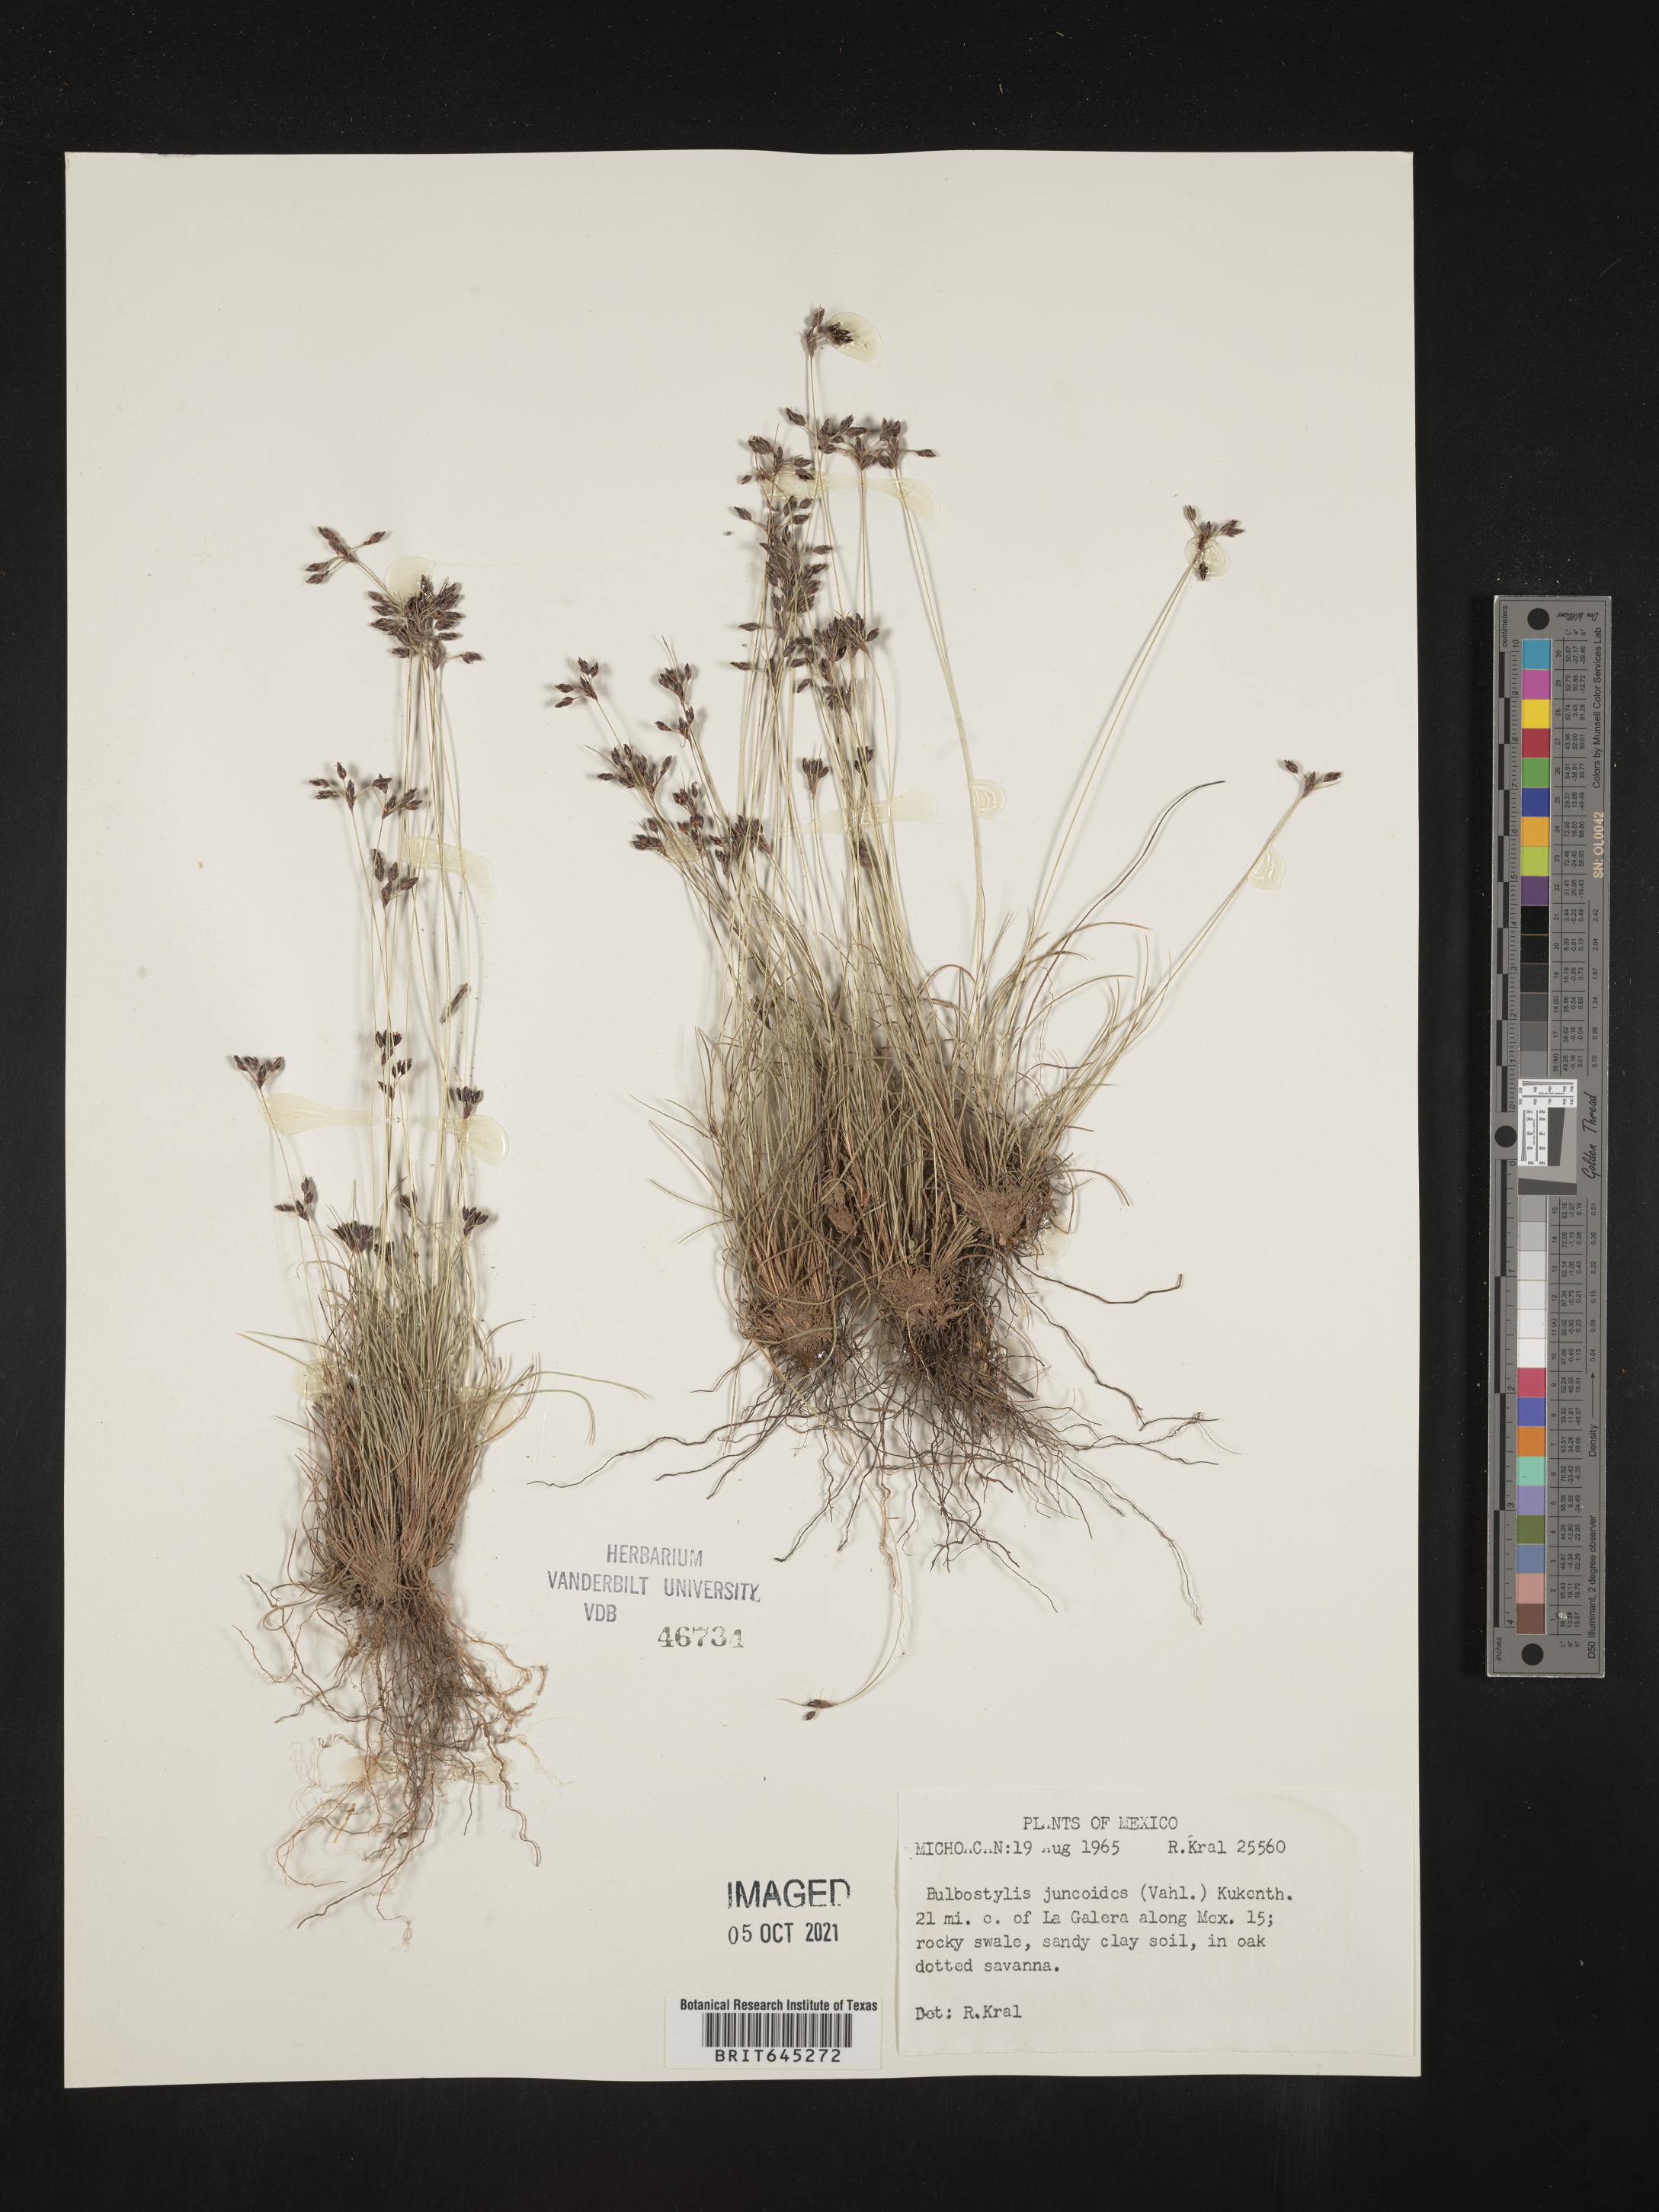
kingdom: Plantae
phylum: Tracheophyta
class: Liliopsida
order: Poales
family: Cyperaceae
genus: Bulbostylis
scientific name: Bulbostylis juncoides
